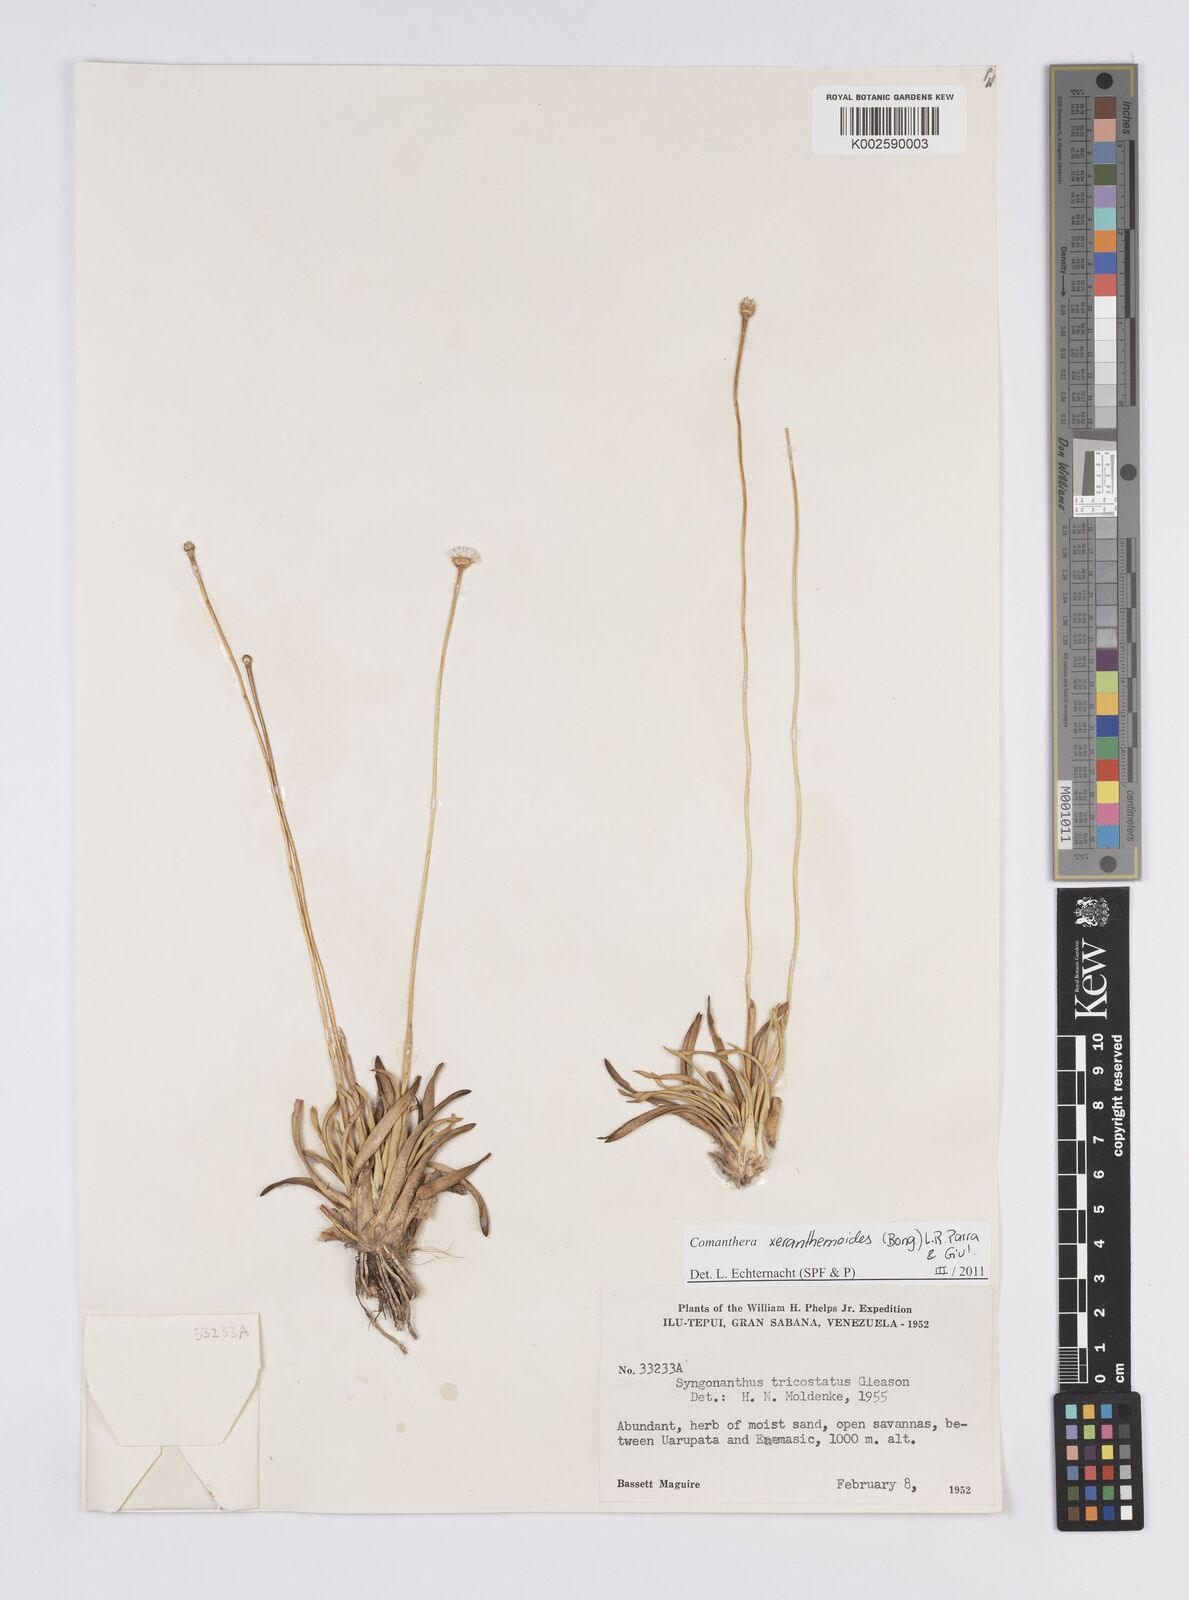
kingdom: Plantae
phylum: Tracheophyta
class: Liliopsida
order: Poales
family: Eriocaulaceae
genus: Comanthera
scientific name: Comanthera xeranthemoides
